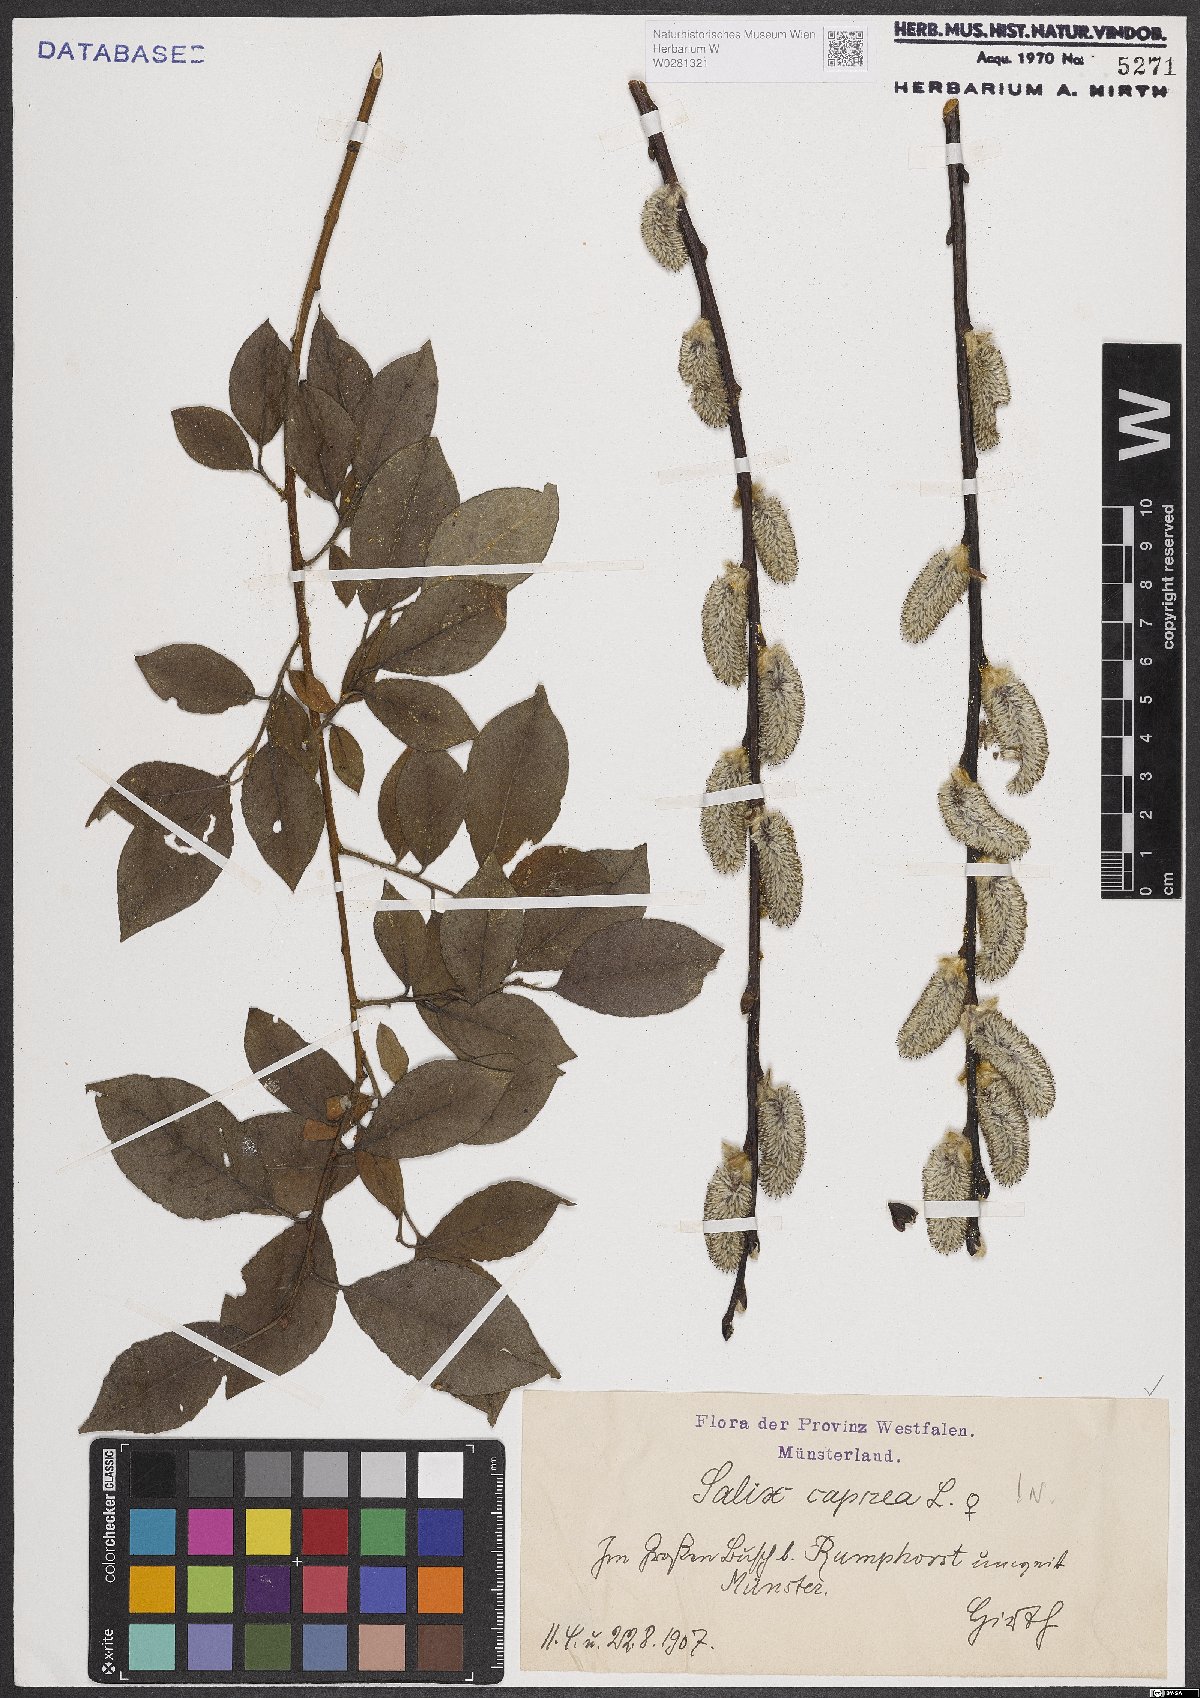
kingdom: Plantae
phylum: Tracheophyta
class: Magnoliopsida
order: Malpighiales
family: Salicaceae
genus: Salix
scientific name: Salix caprea
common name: Goat willow
